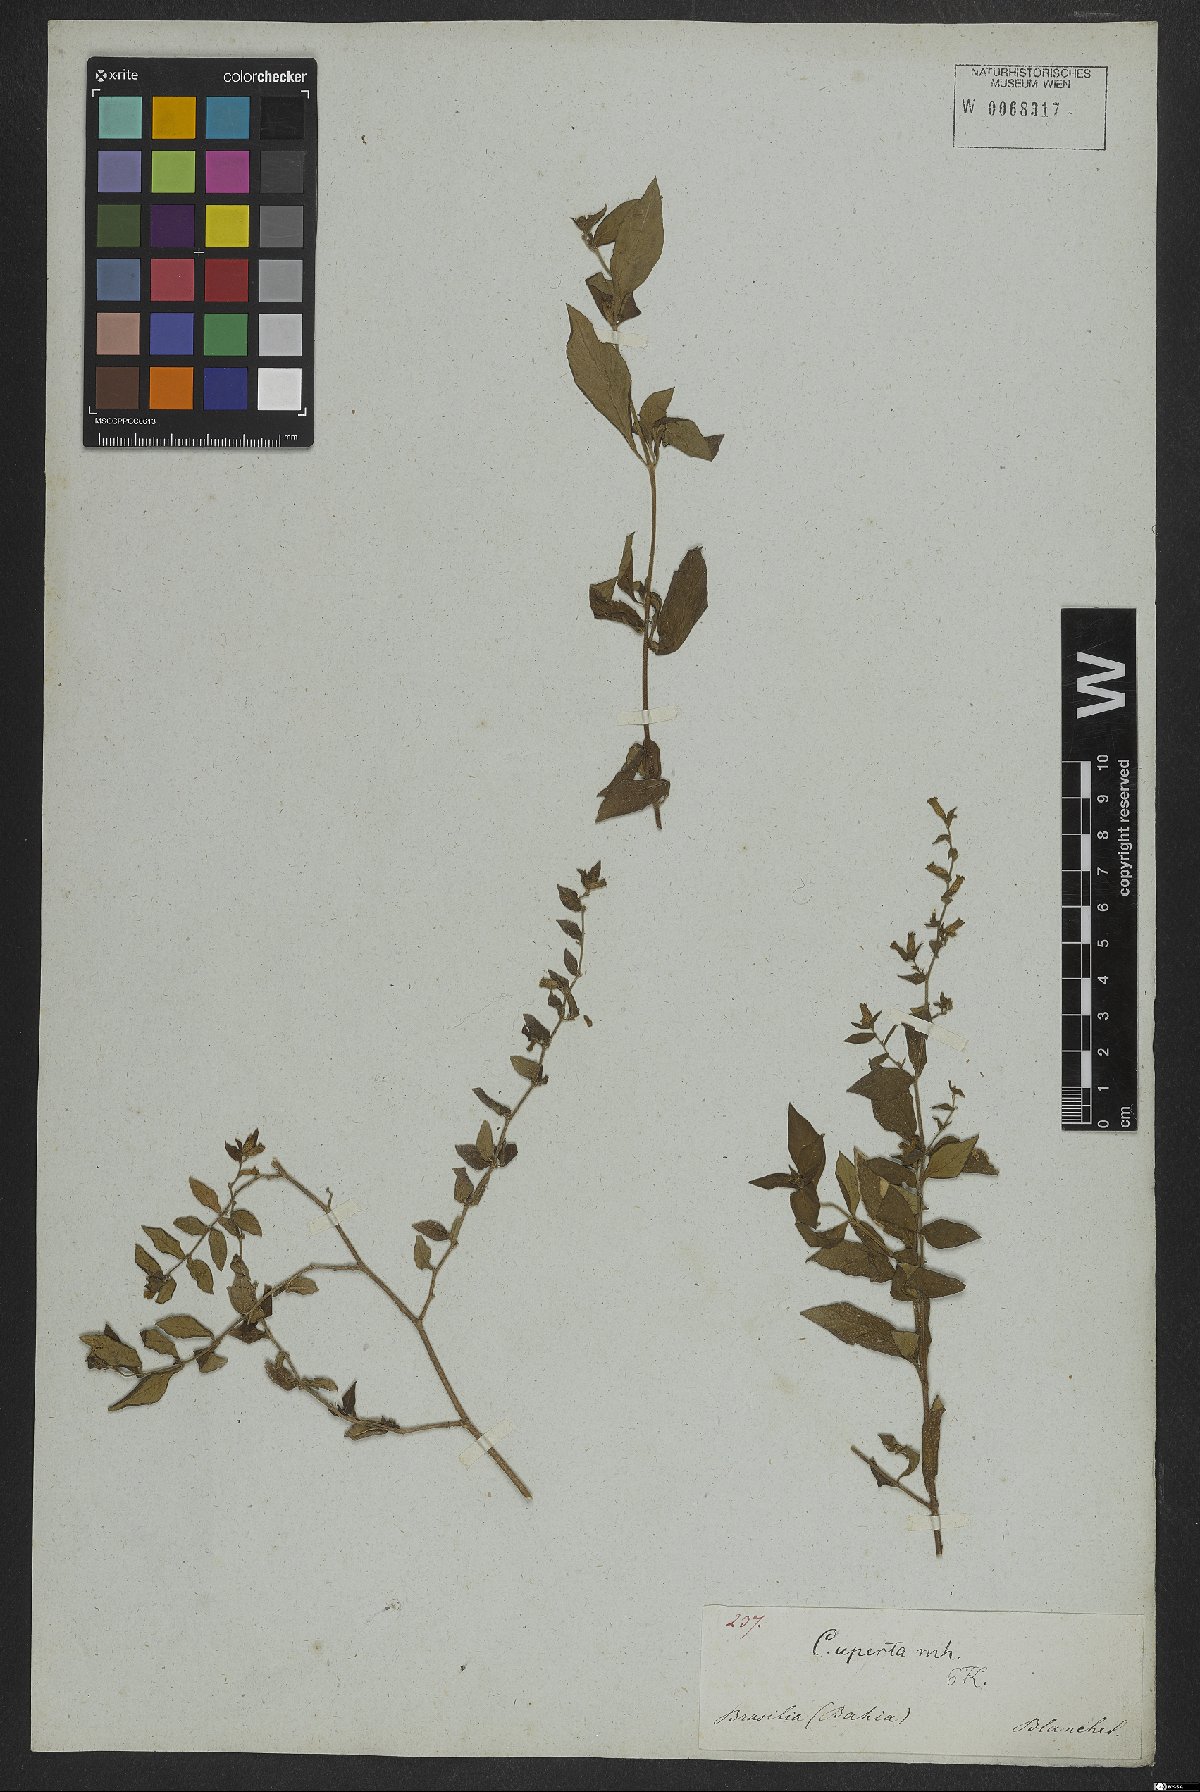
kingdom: Plantae
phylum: Tracheophyta
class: Magnoliopsida
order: Myrtales
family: Lythraceae
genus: Cuphea
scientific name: Cuphea aperta
